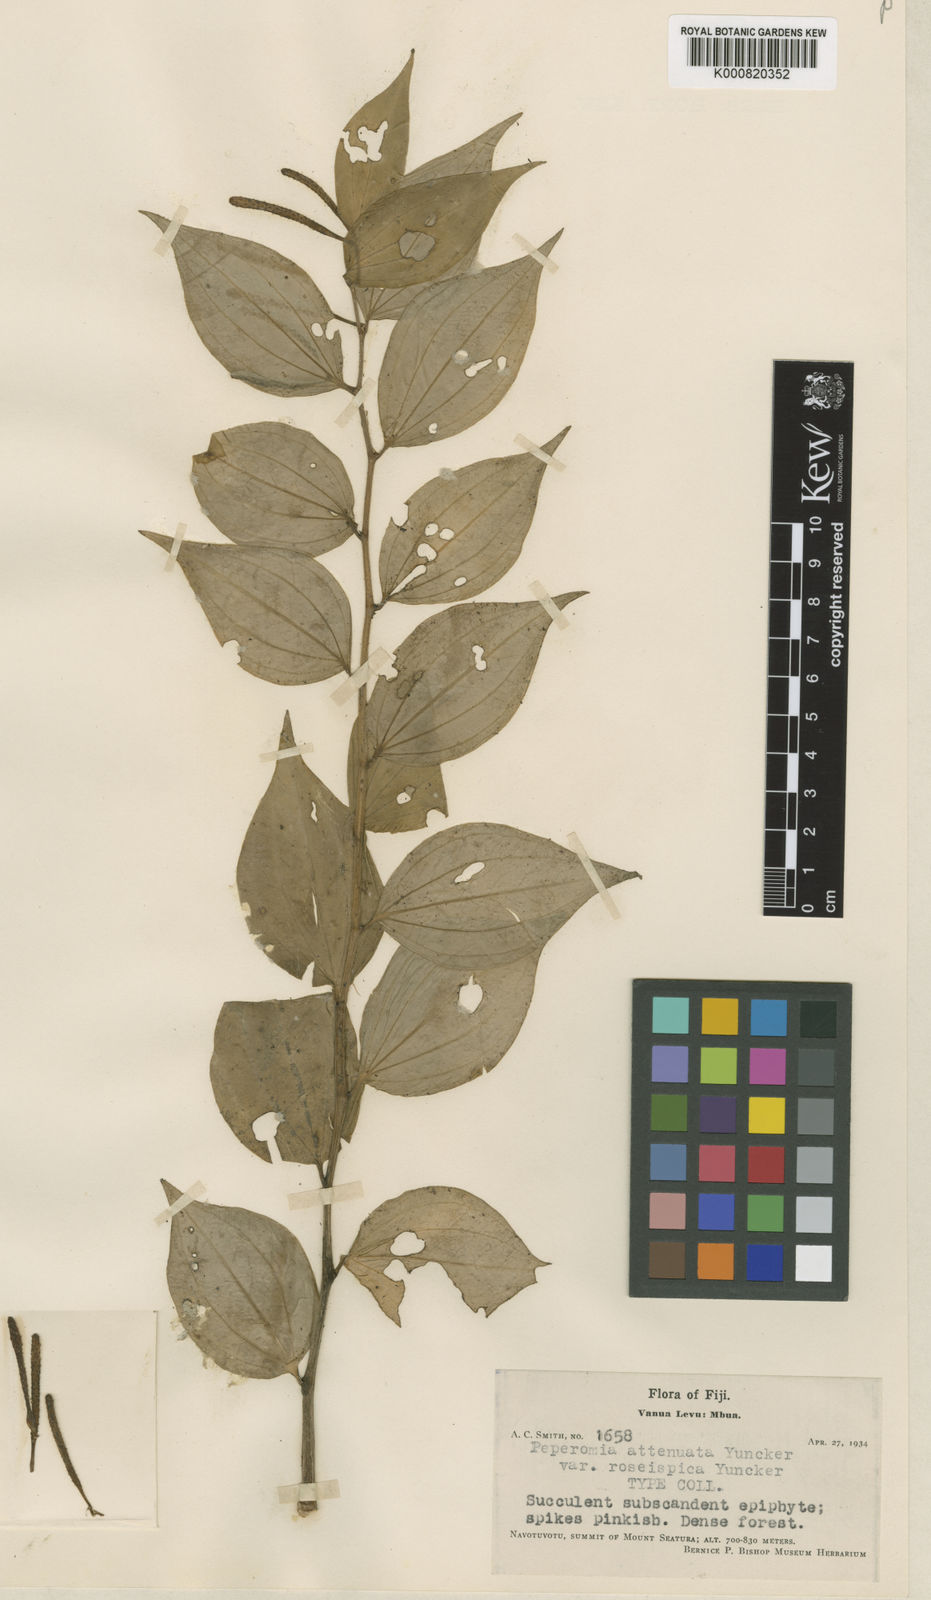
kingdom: Plantae
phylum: Tracheophyta
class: Magnoliopsida
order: Piperales
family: Piperaceae
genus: Peperomia
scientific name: Peperomia attenuata
